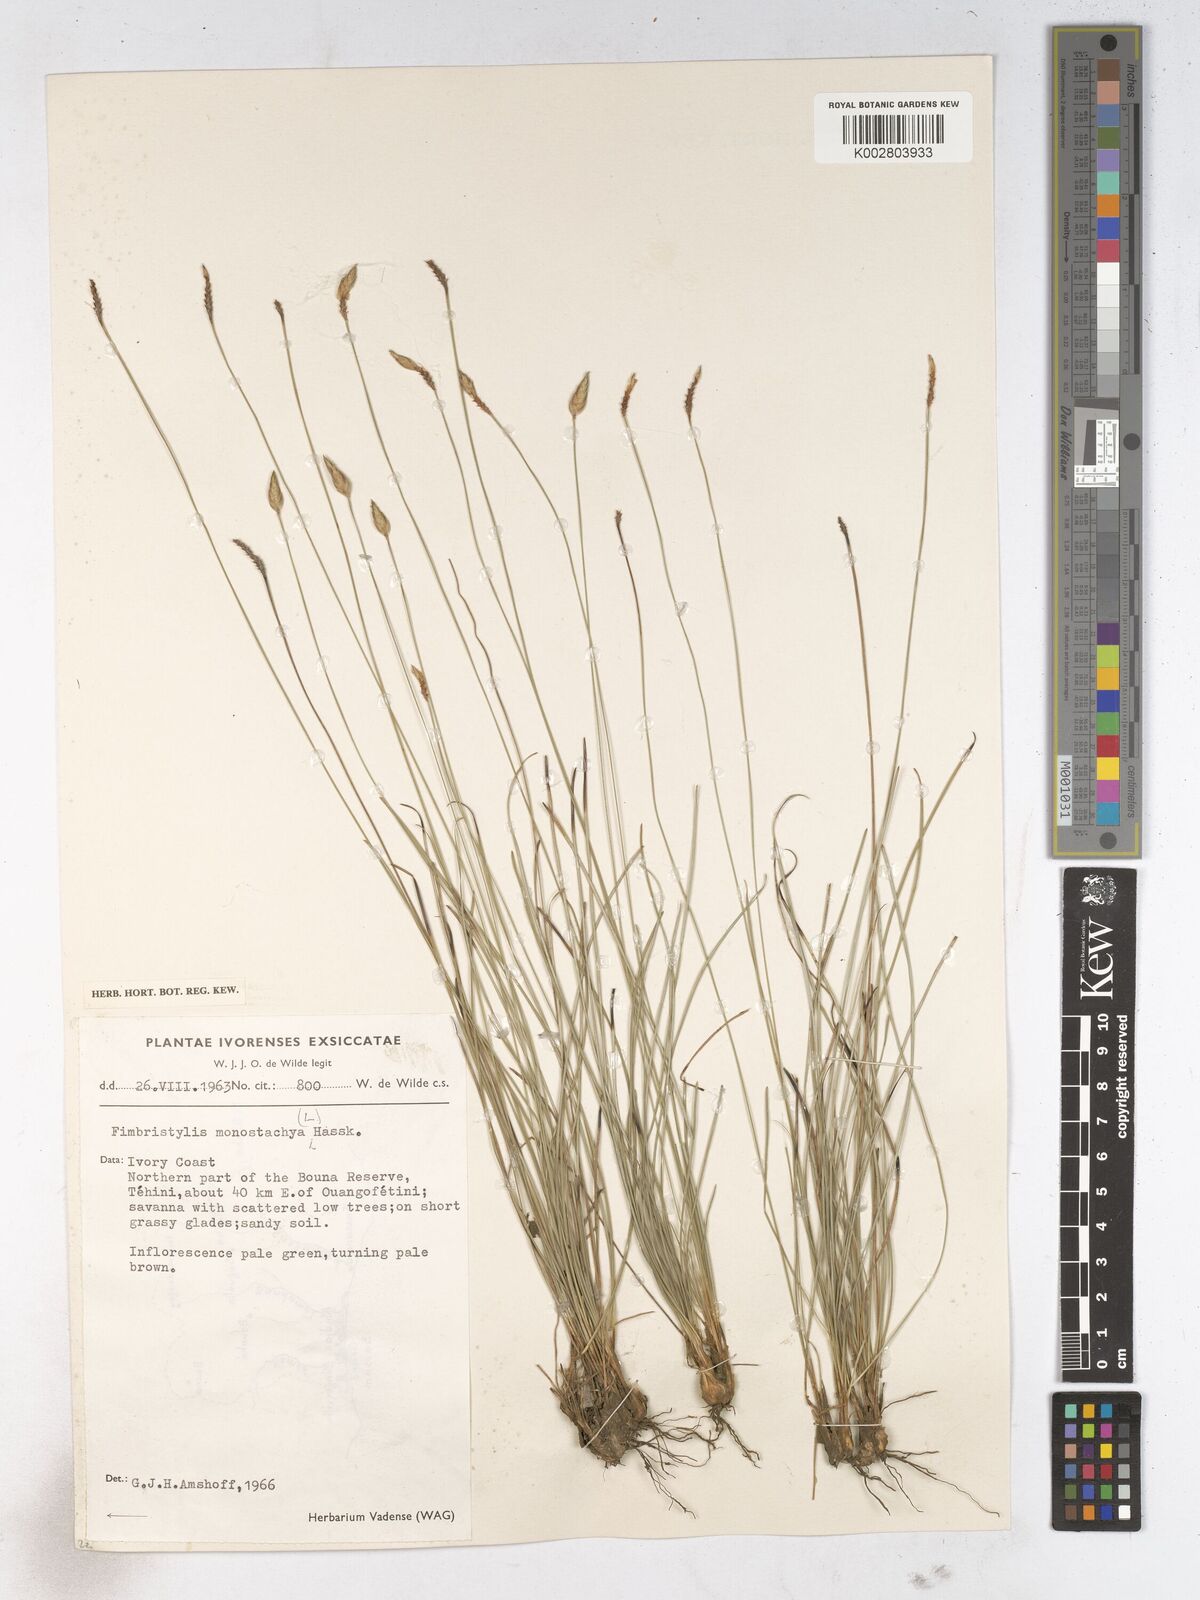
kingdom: Plantae
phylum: Tracheophyta
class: Liliopsida
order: Poales
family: Cyperaceae
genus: Abildgaardia
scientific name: Abildgaardia ovata
